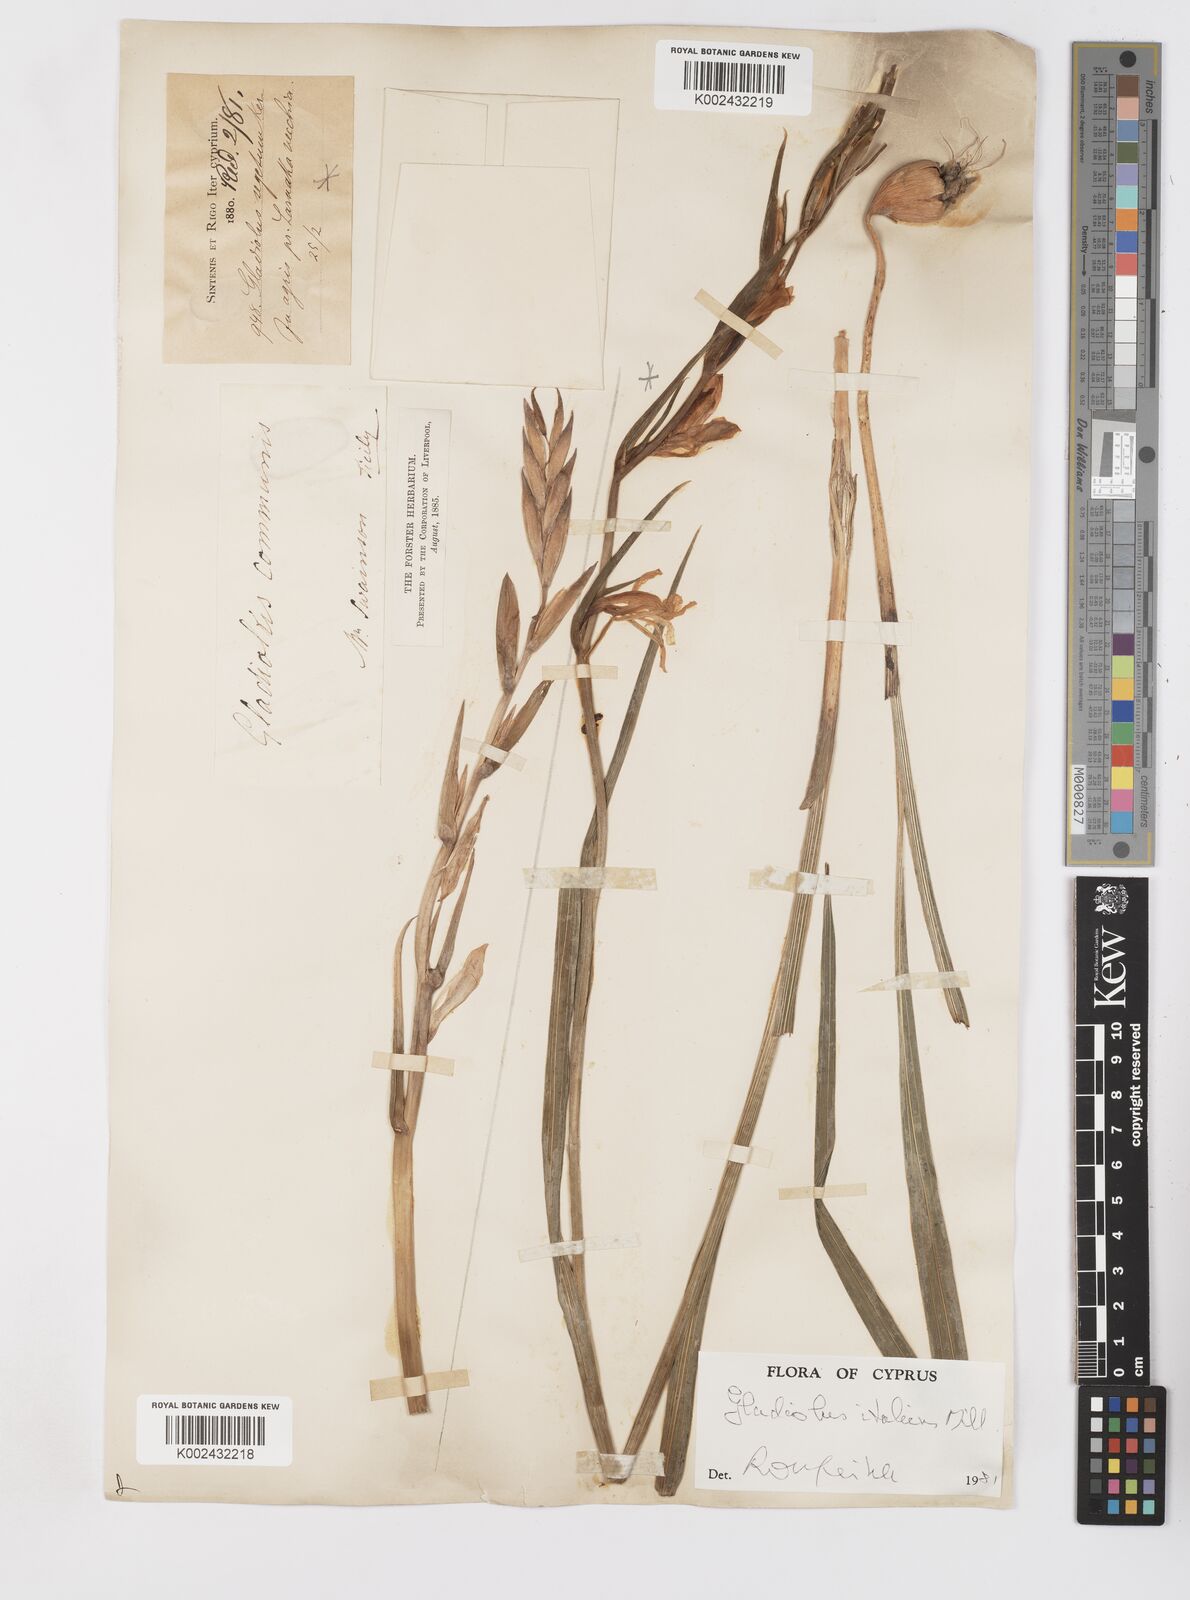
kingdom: Plantae
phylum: Tracheophyta
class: Liliopsida
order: Asparagales
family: Iridaceae
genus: Gladiolus
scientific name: Gladiolus italicus
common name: Field gladiolus
